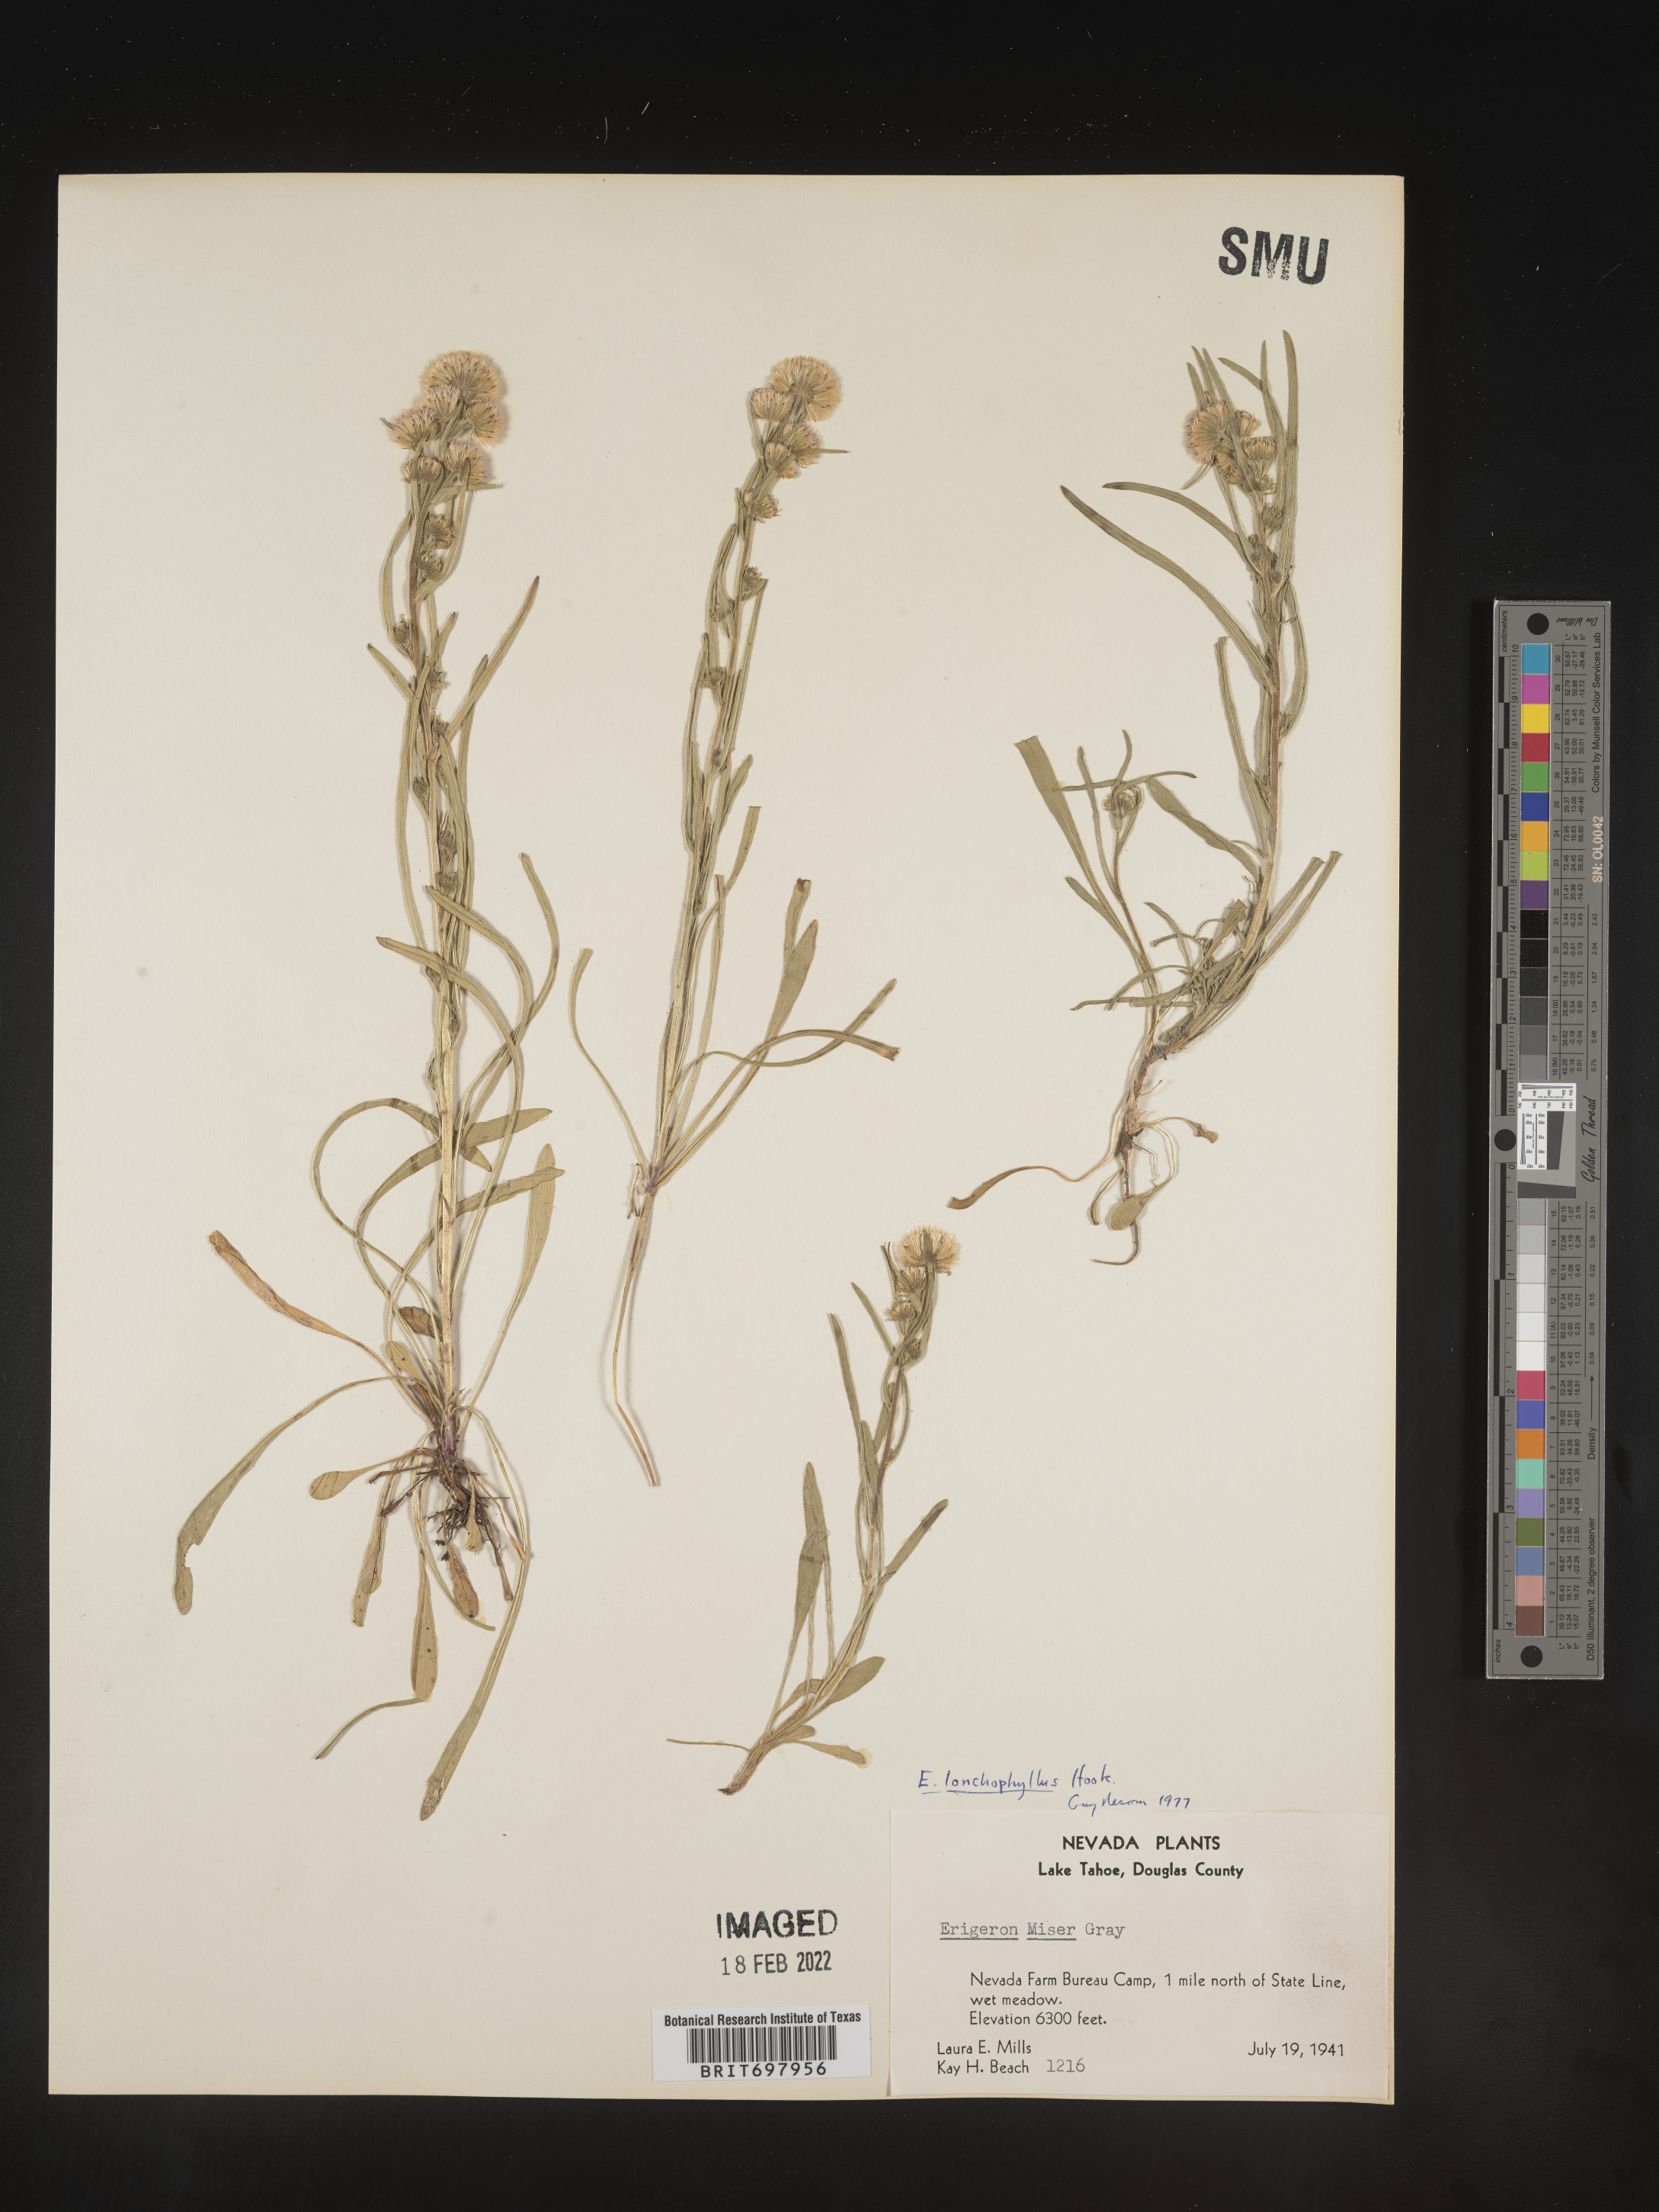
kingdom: Plantae
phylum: Tracheophyta
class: Magnoliopsida
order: Asterales
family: Asteraceae
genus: Erigeron
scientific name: Erigeron lonchophyllus
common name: Short-ray fleabane
